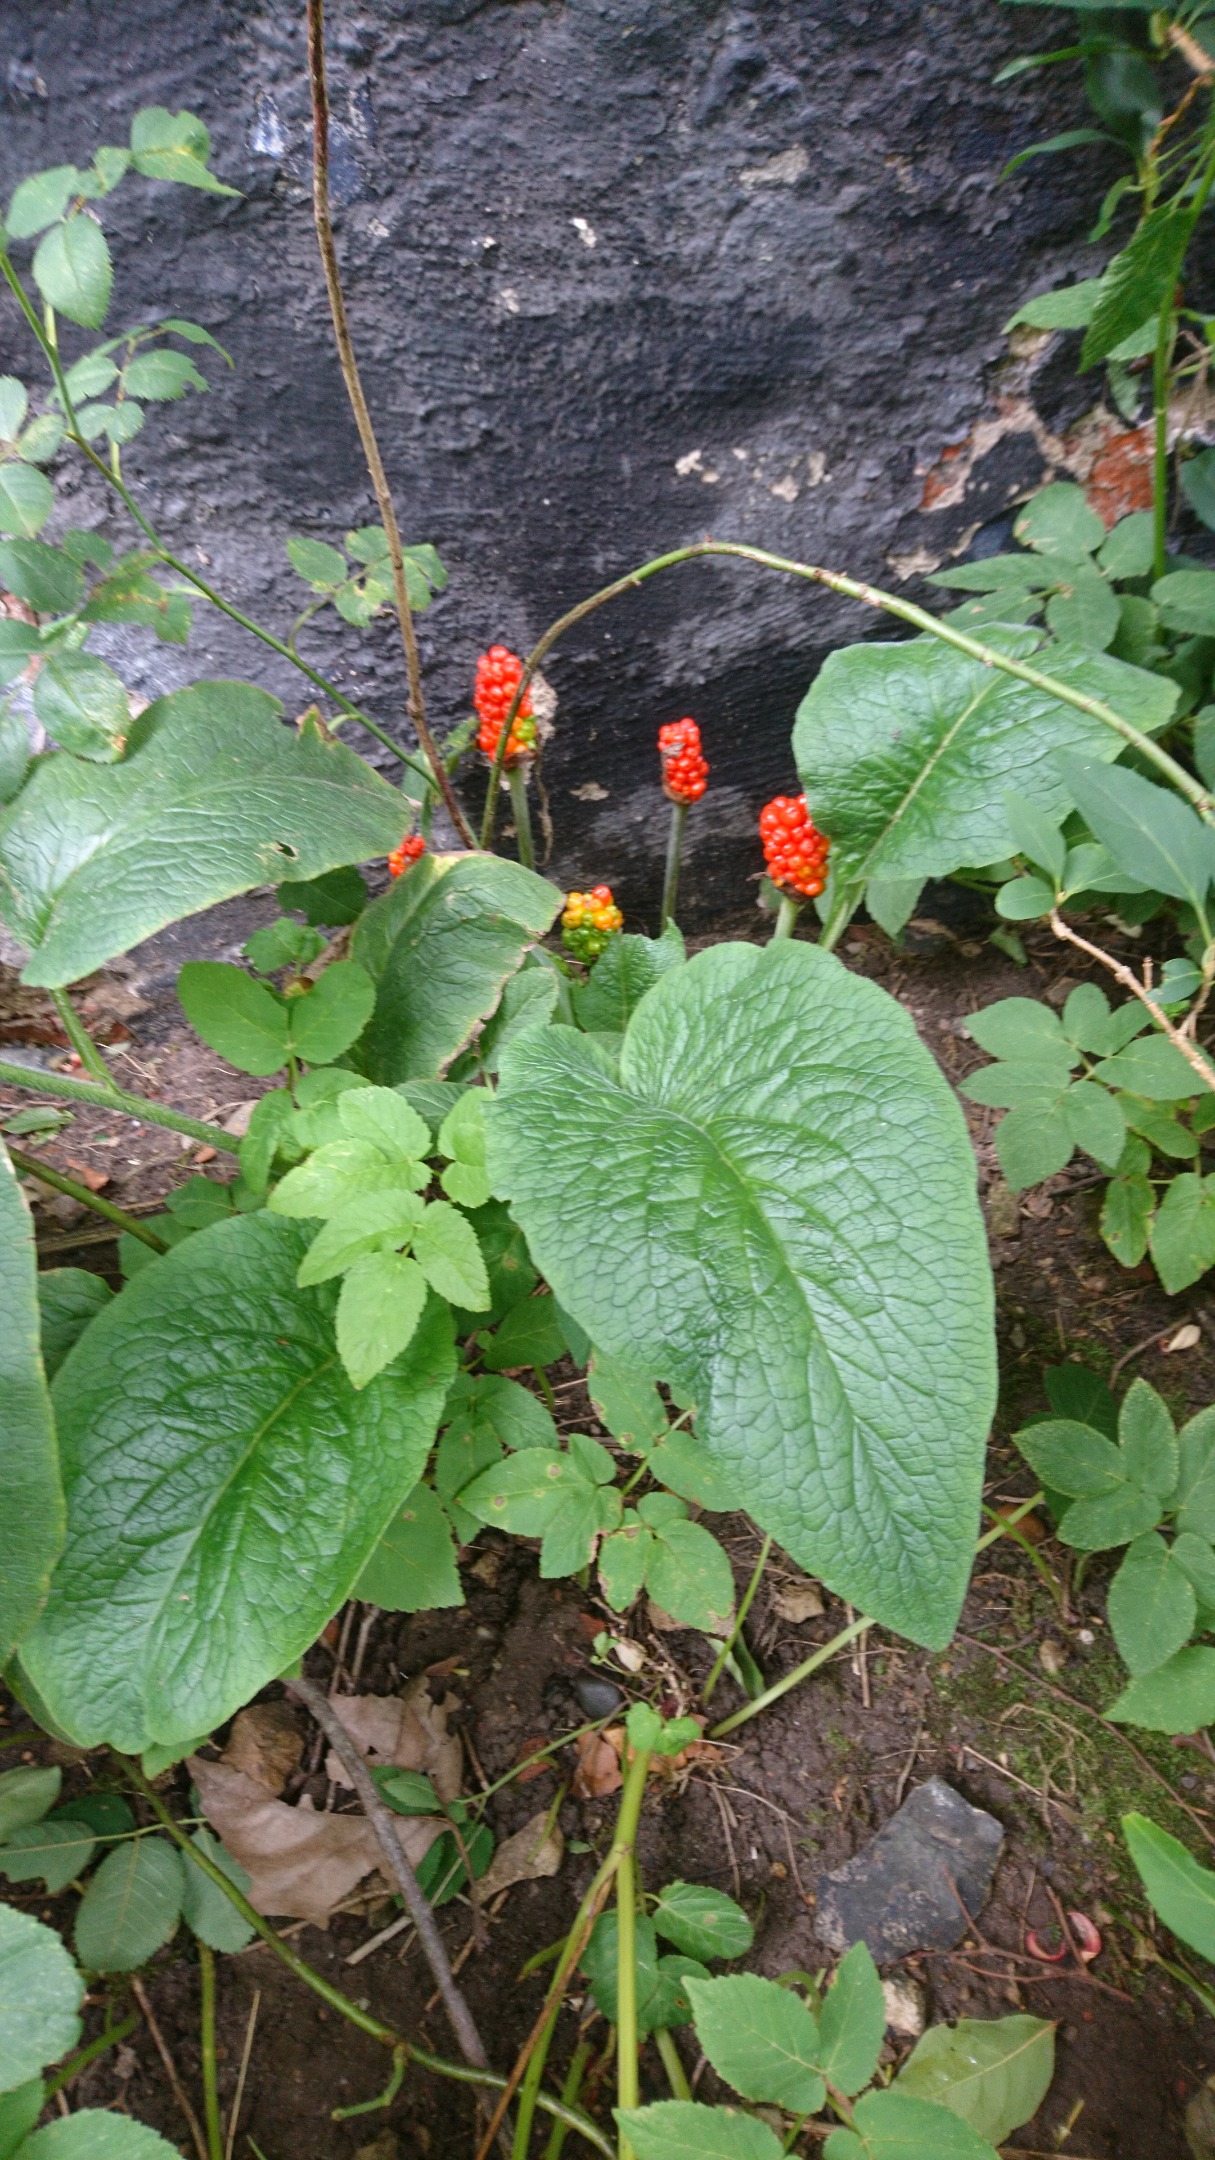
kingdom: Plantae
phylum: Tracheophyta
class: Liliopsida
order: Alismatales
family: Araceae
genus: Arum
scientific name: Arum
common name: Arumslægten
